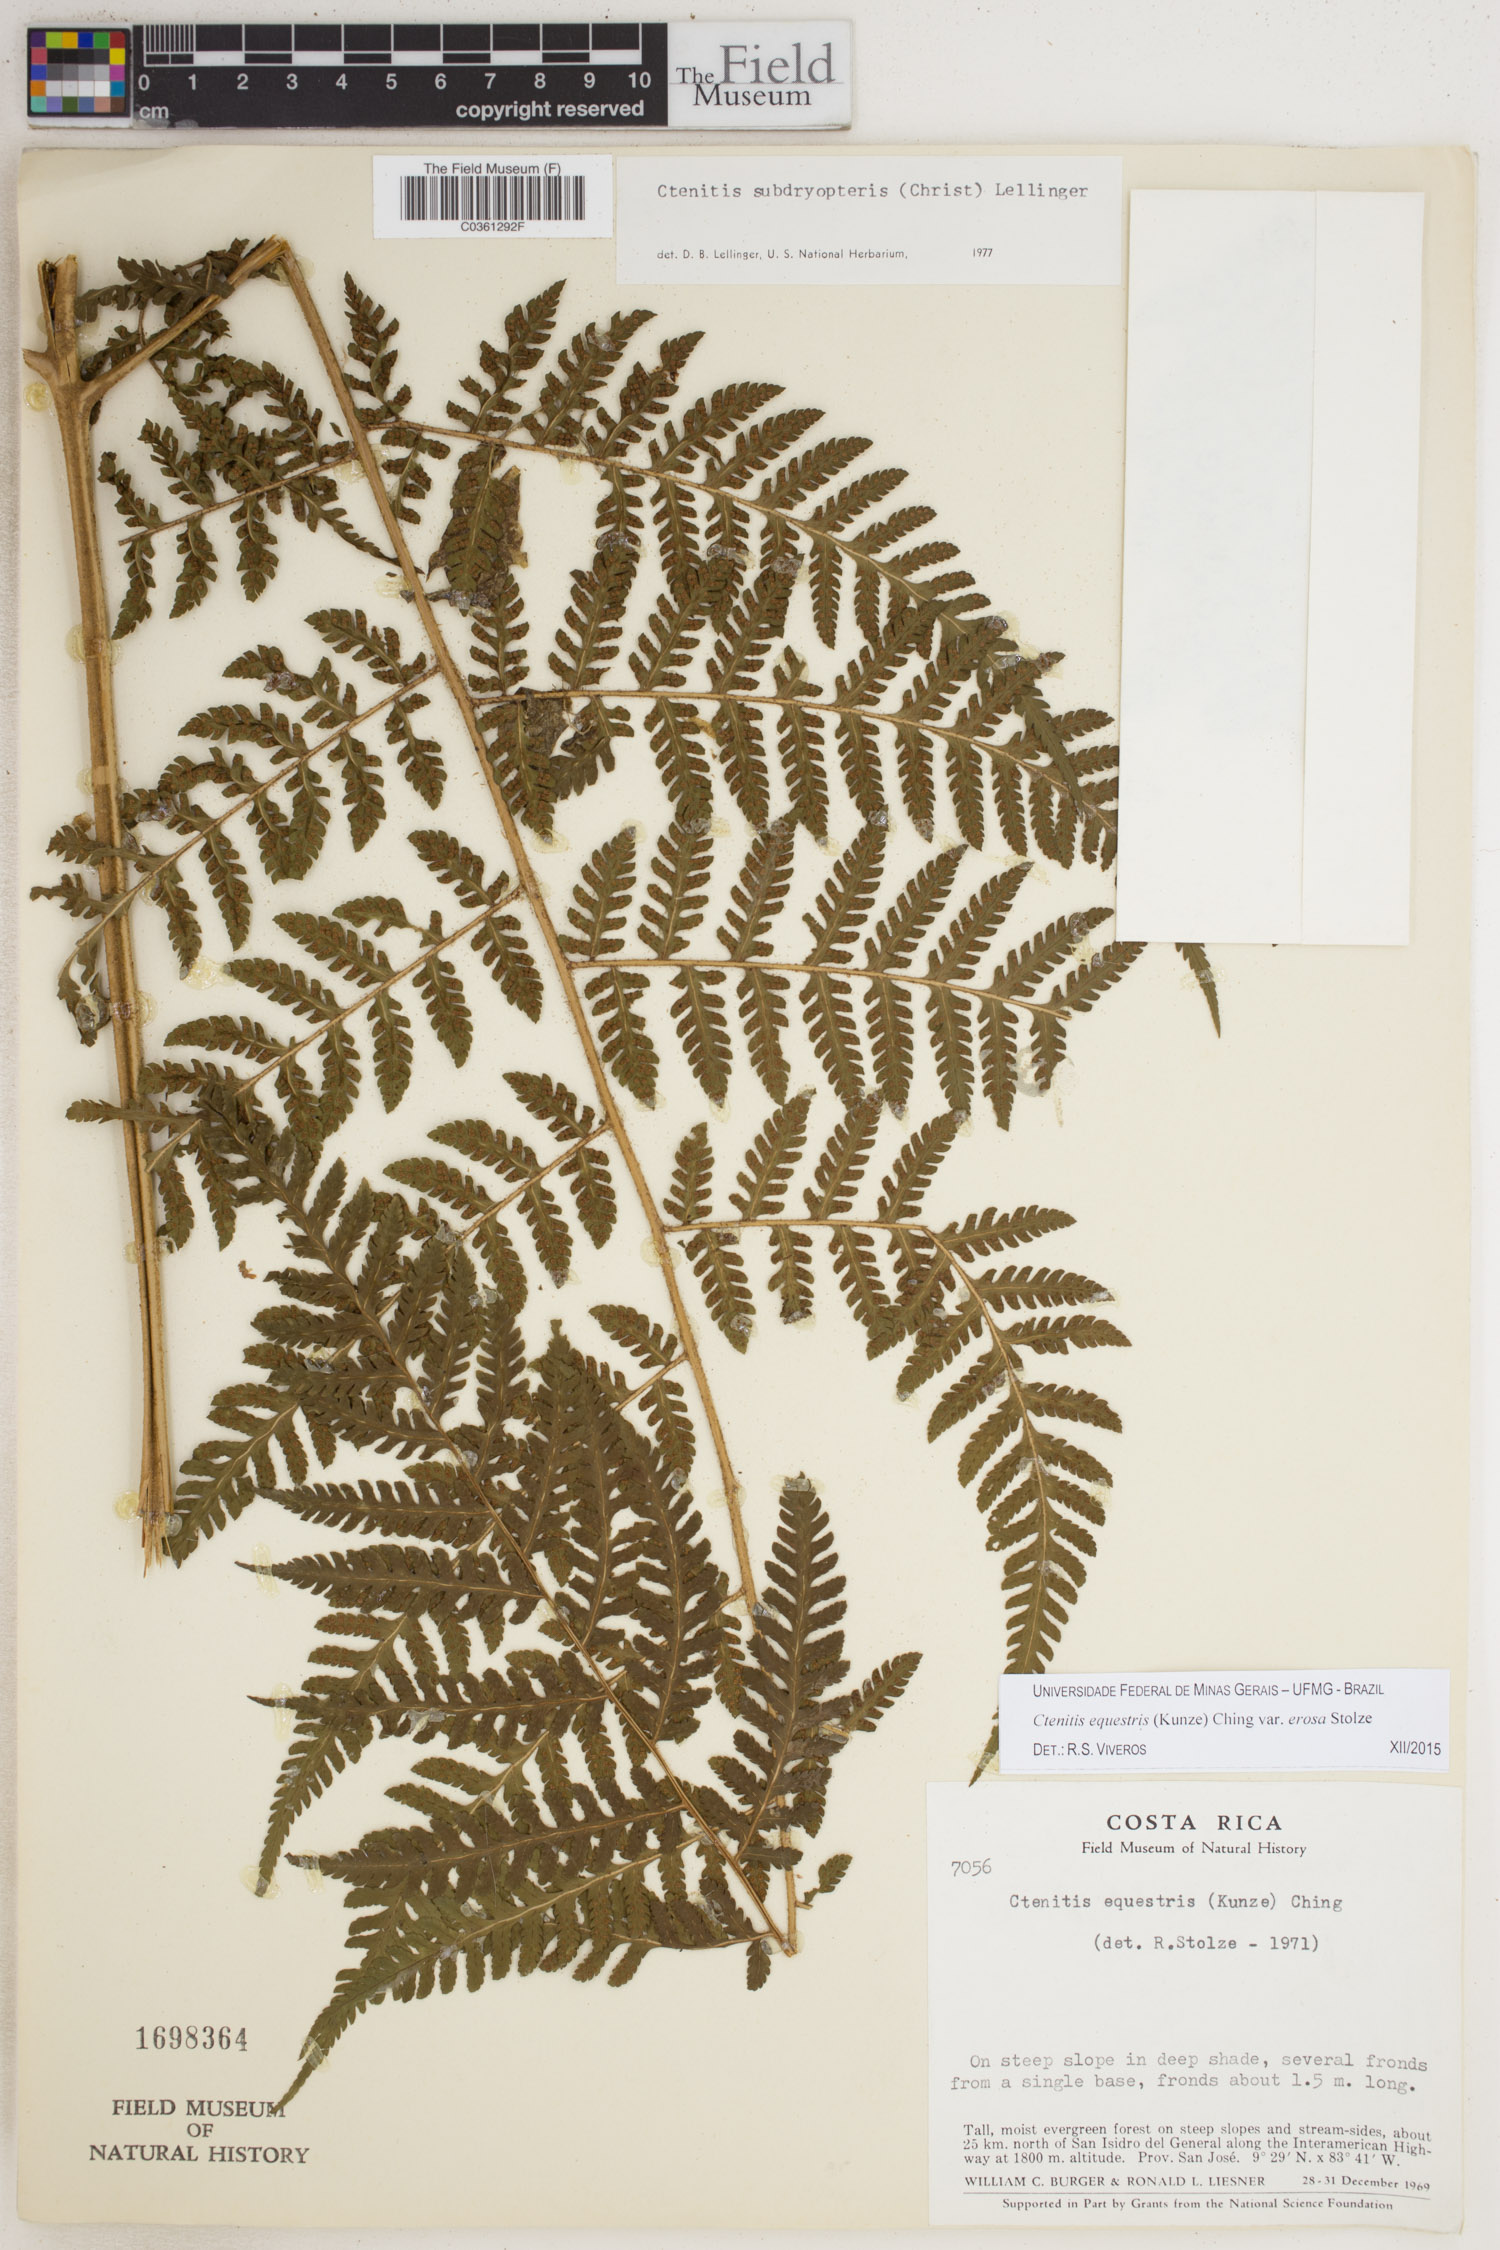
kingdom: Plantae
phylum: Tracheophyta
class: Polypodiopsida
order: Polypodiales
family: Dryopteridaceae
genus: Ctenitis
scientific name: Ctenitis equestris
